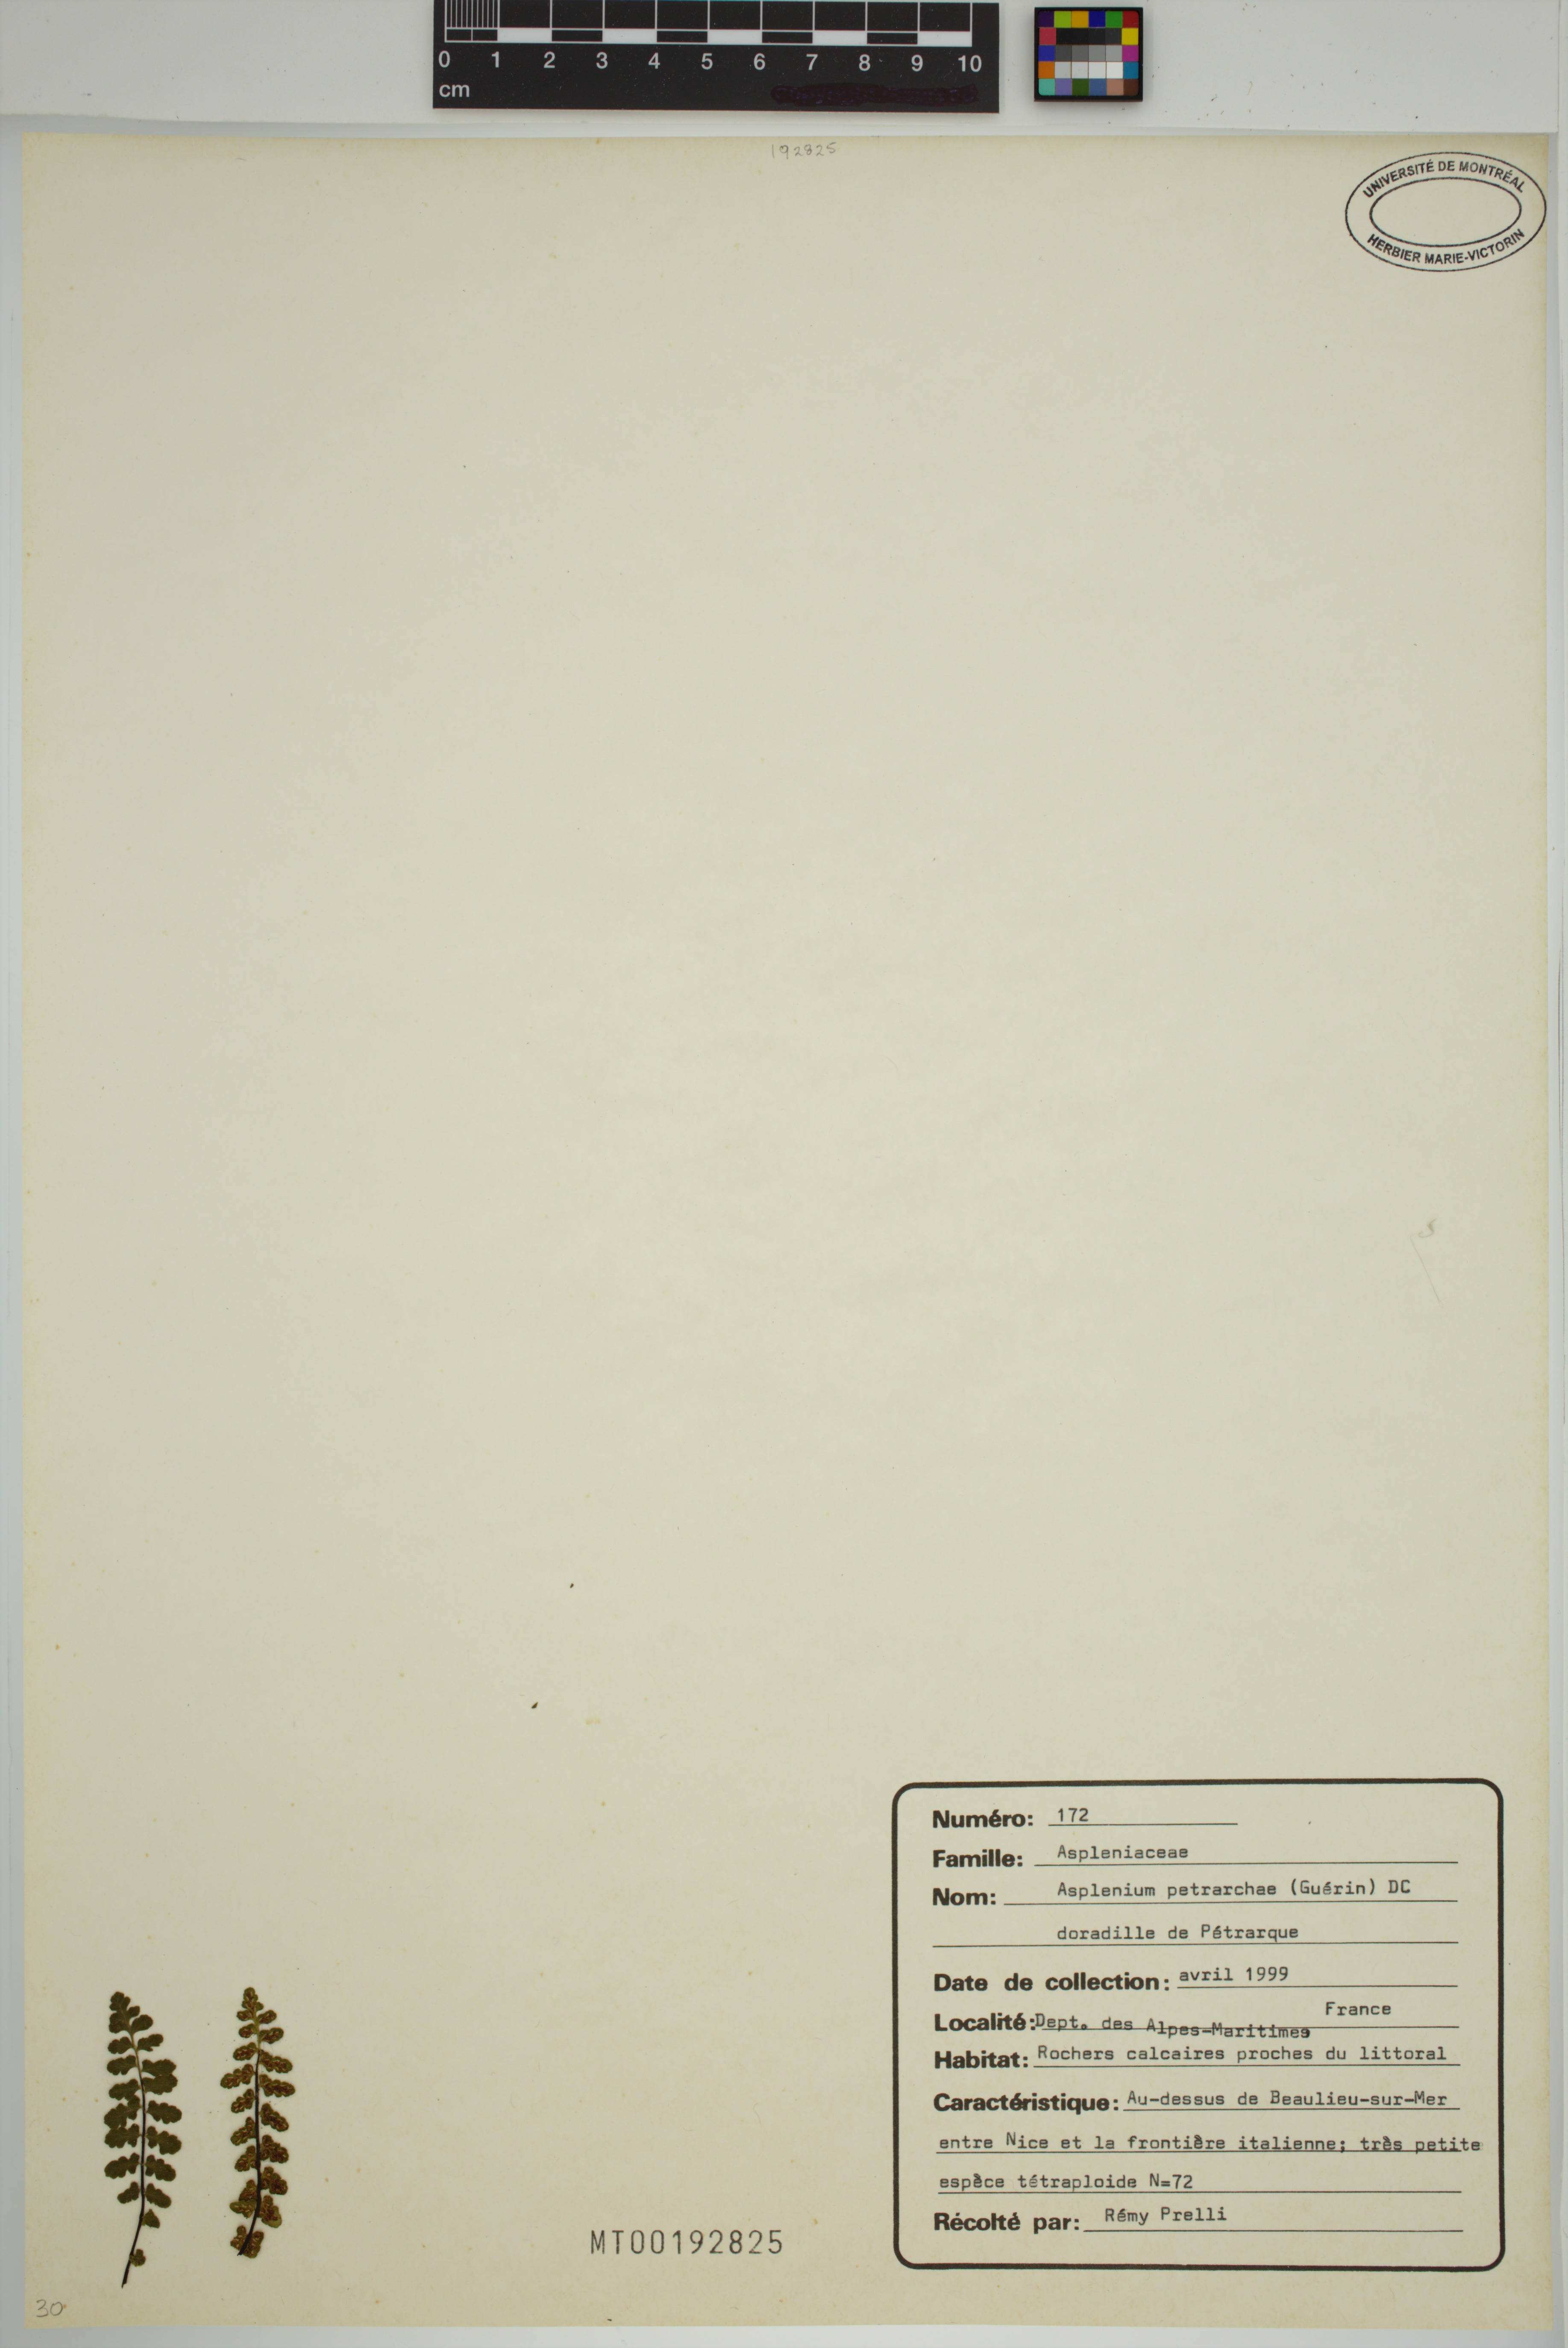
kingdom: Plantae
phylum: Tracheophyta
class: Polypodiopsida
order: Polypodiales
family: Aspleniaceae
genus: Asplenium
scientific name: Asplenium petrarchae
